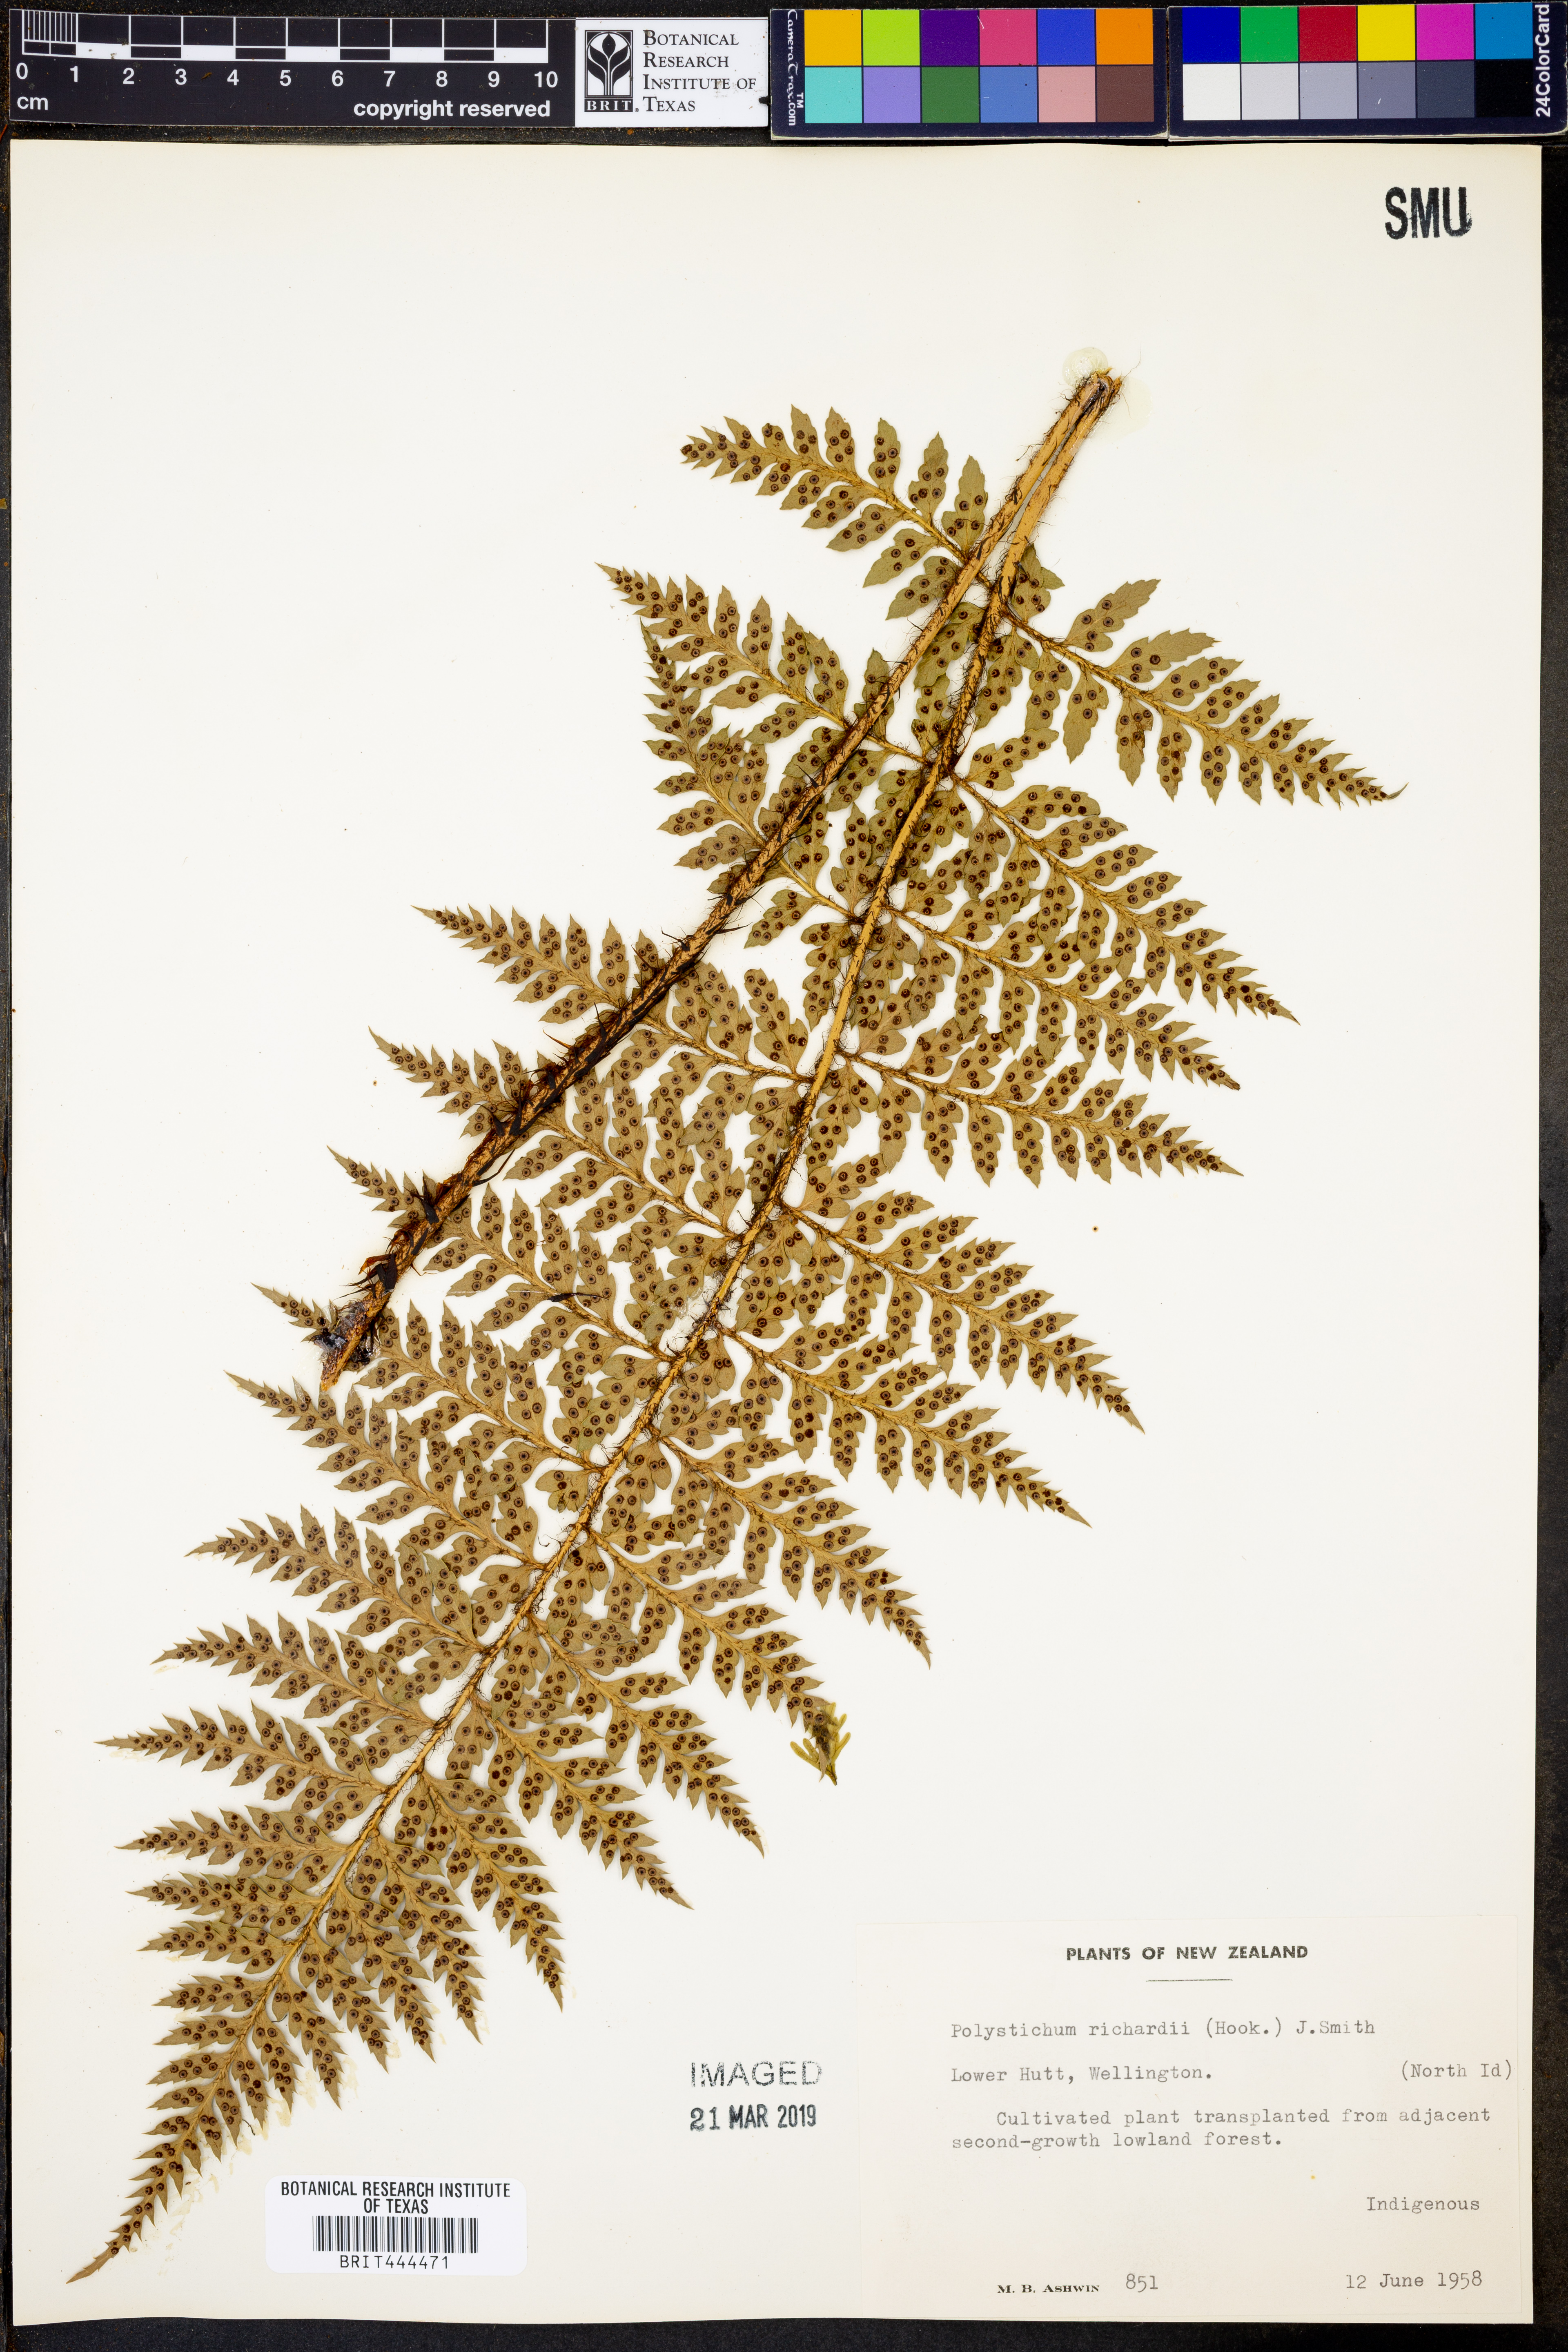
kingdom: Plantae
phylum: Tracheophyta
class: Polypodiopsida
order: Polypodiales
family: Dryopteridaceae
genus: Polystichum
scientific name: Polystichum neozelandicum
